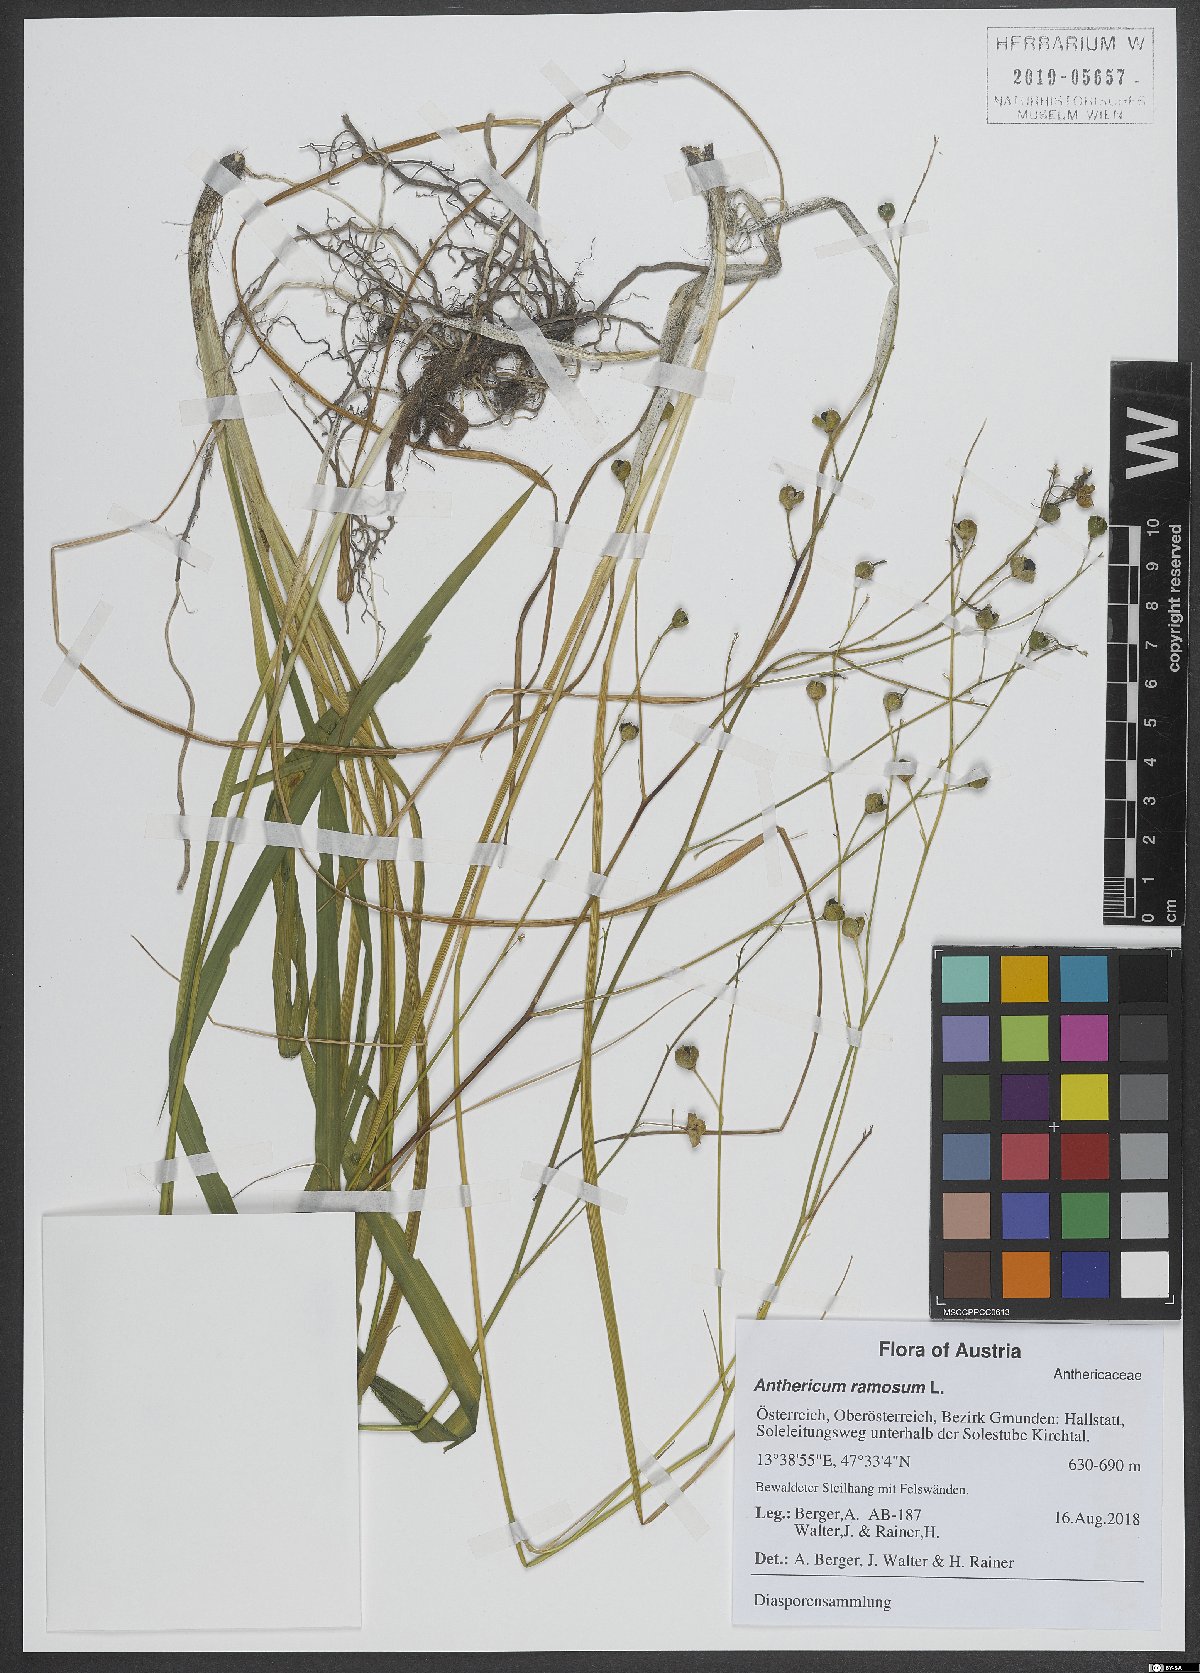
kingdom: Plantae
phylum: Tracheophyta
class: Liliopsida
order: Asparagales
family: Asparagaceae
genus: Anthericum
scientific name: Anthericum ramosum
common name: Branched st. bernard's-lily
